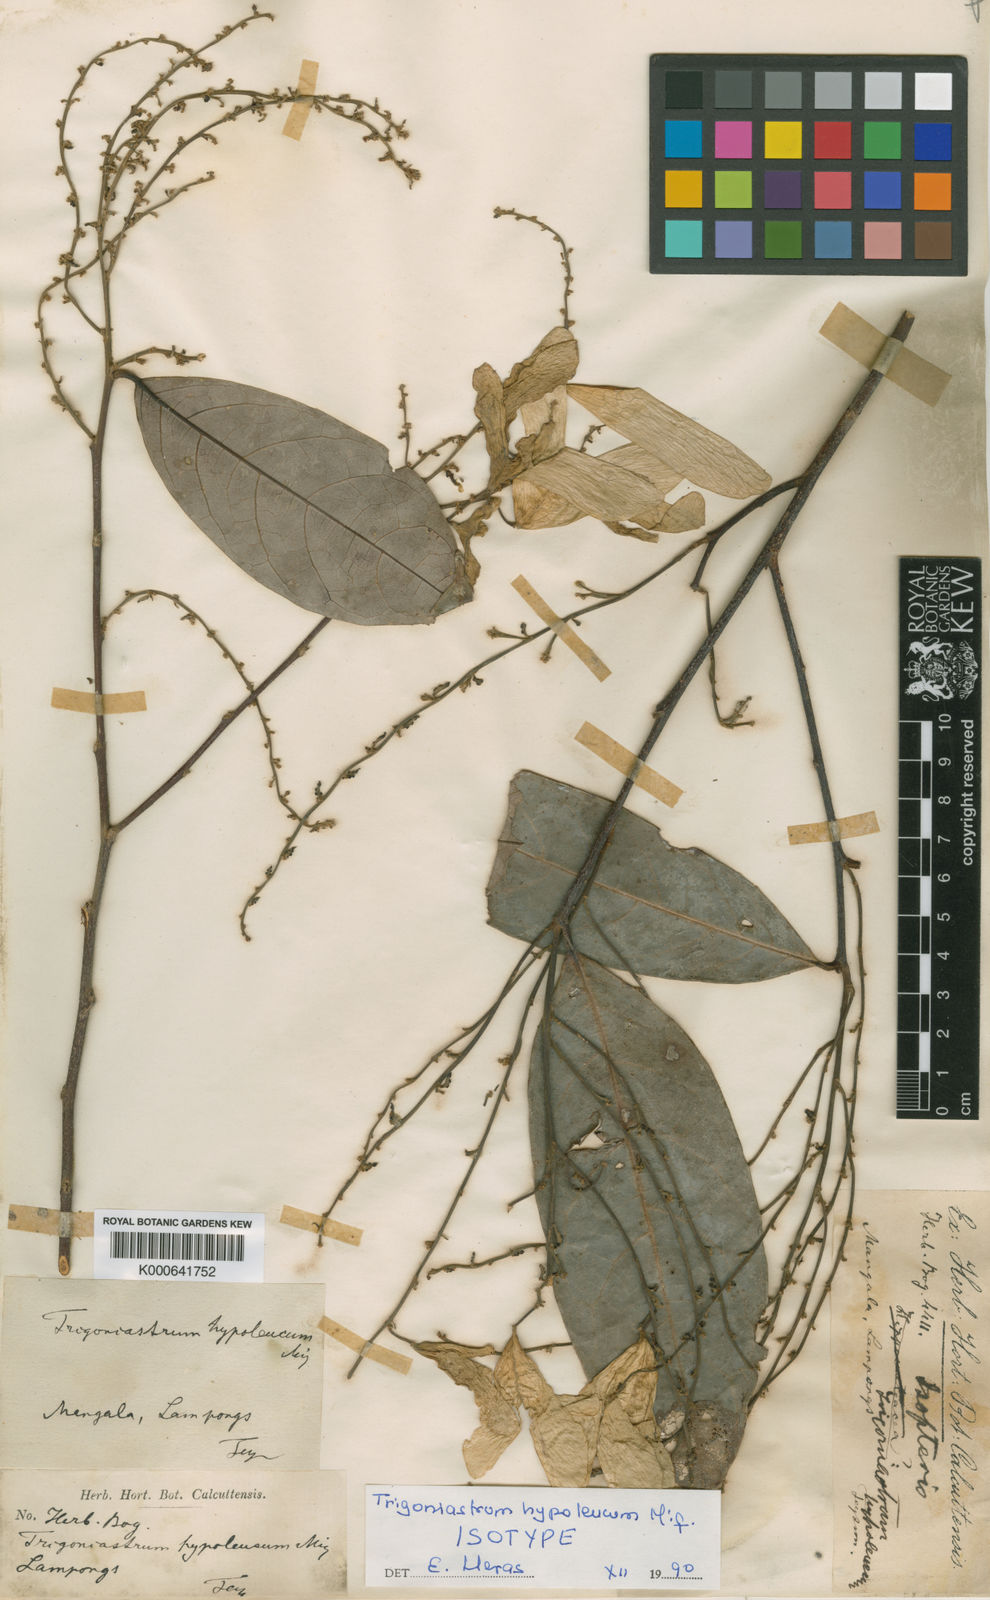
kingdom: Plantae
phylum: Tracheophyta
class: Magnoliopsida
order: Malpighiales
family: Trigoniaceae
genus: Trigoniastrum
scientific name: Trigoniastrum hypoleucum
